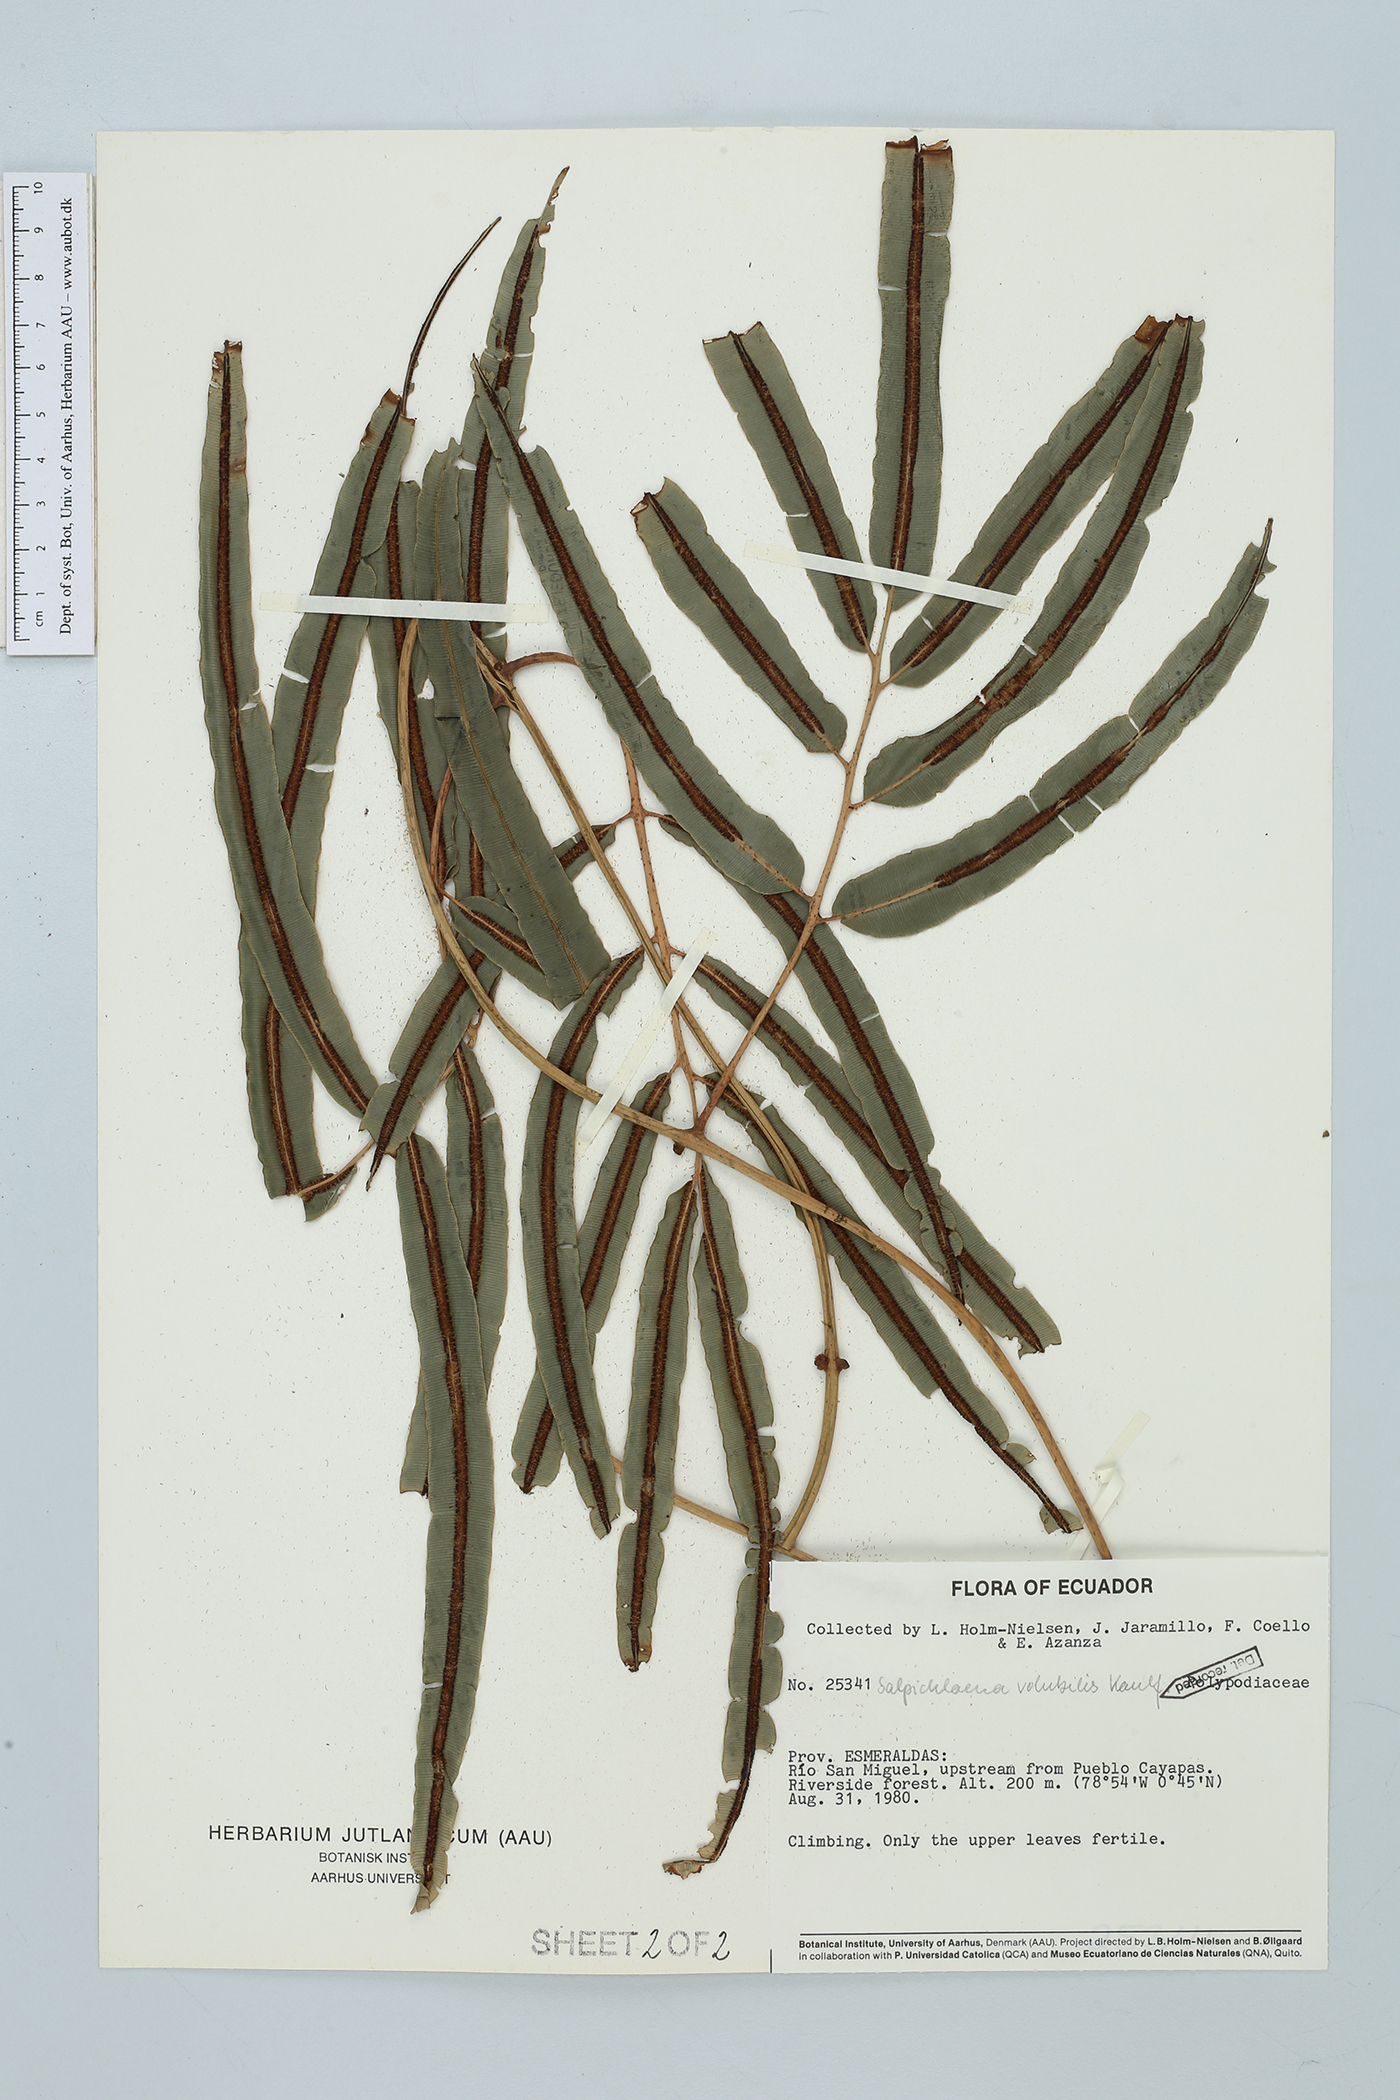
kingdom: Plantae
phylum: Tracheophyta
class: Polypodiopsida
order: Polypodiales
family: Blechnaceae
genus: Salpichlaena
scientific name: Salpichlaena papyrus
